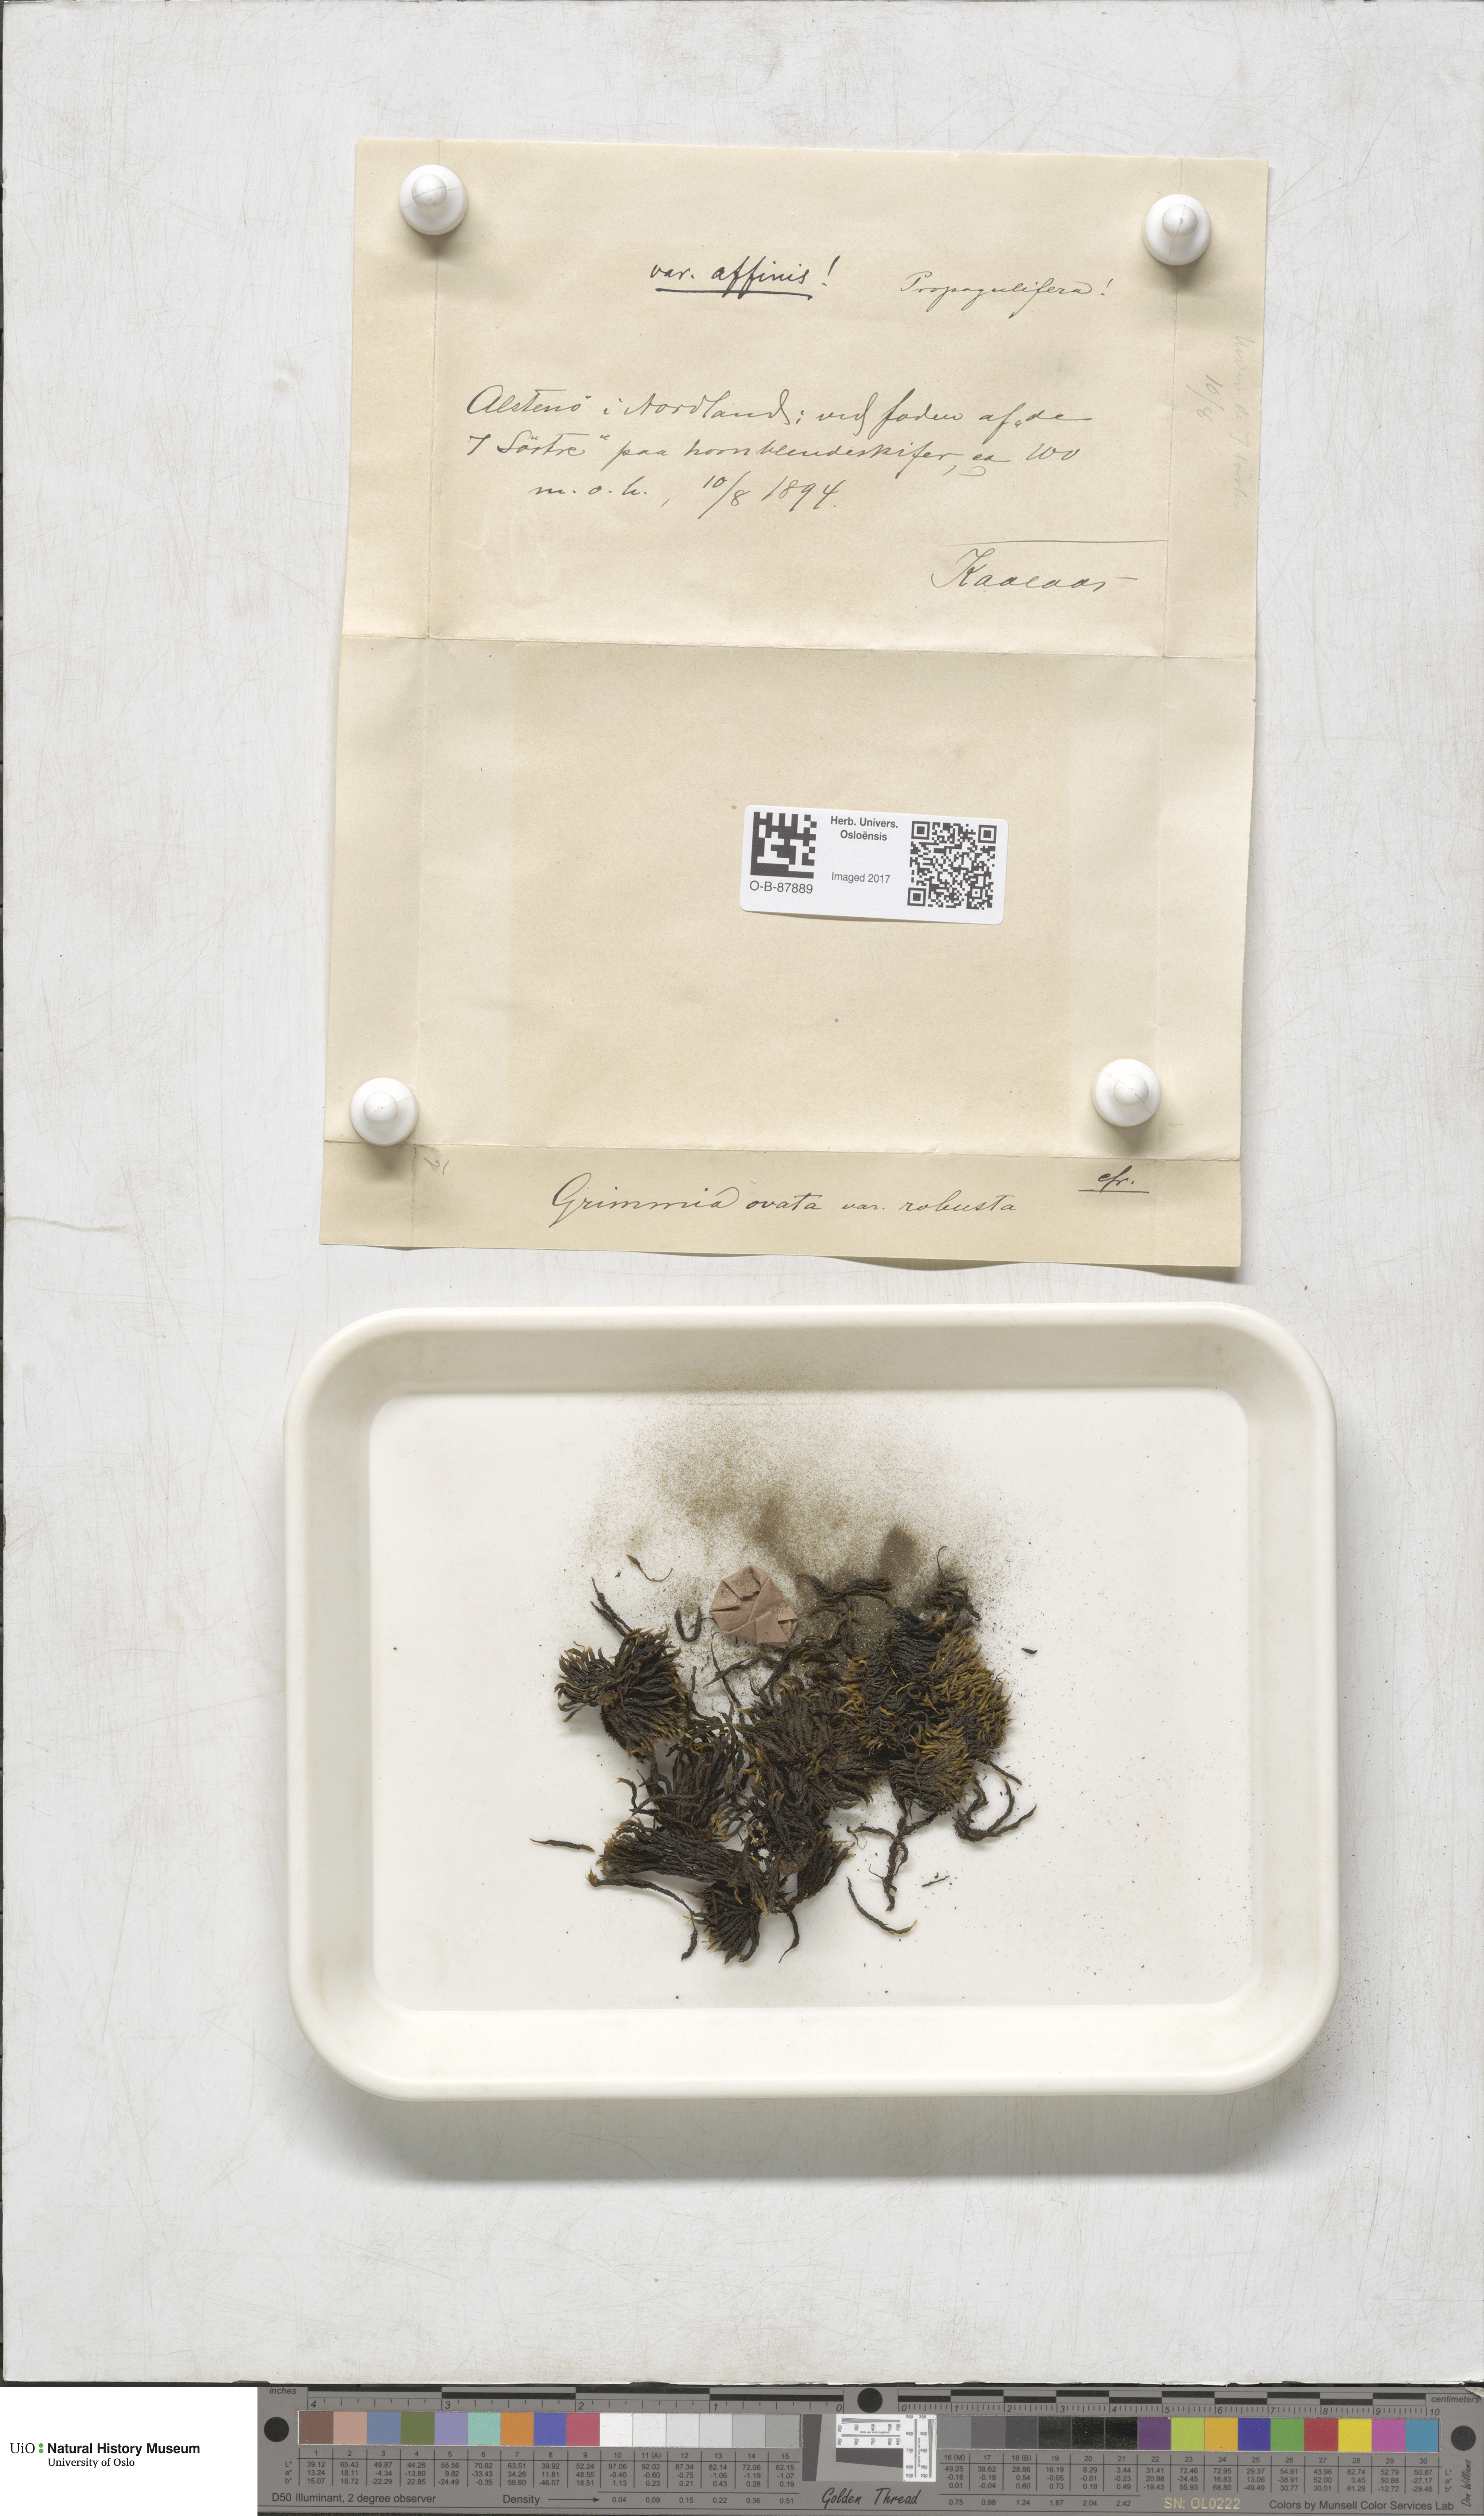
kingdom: Plantae
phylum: Bryophyta
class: Bryopsida
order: Grimmiales
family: Grimmiaceae
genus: Grimmia
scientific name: Grimmia ovalis
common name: Oval grimmia
